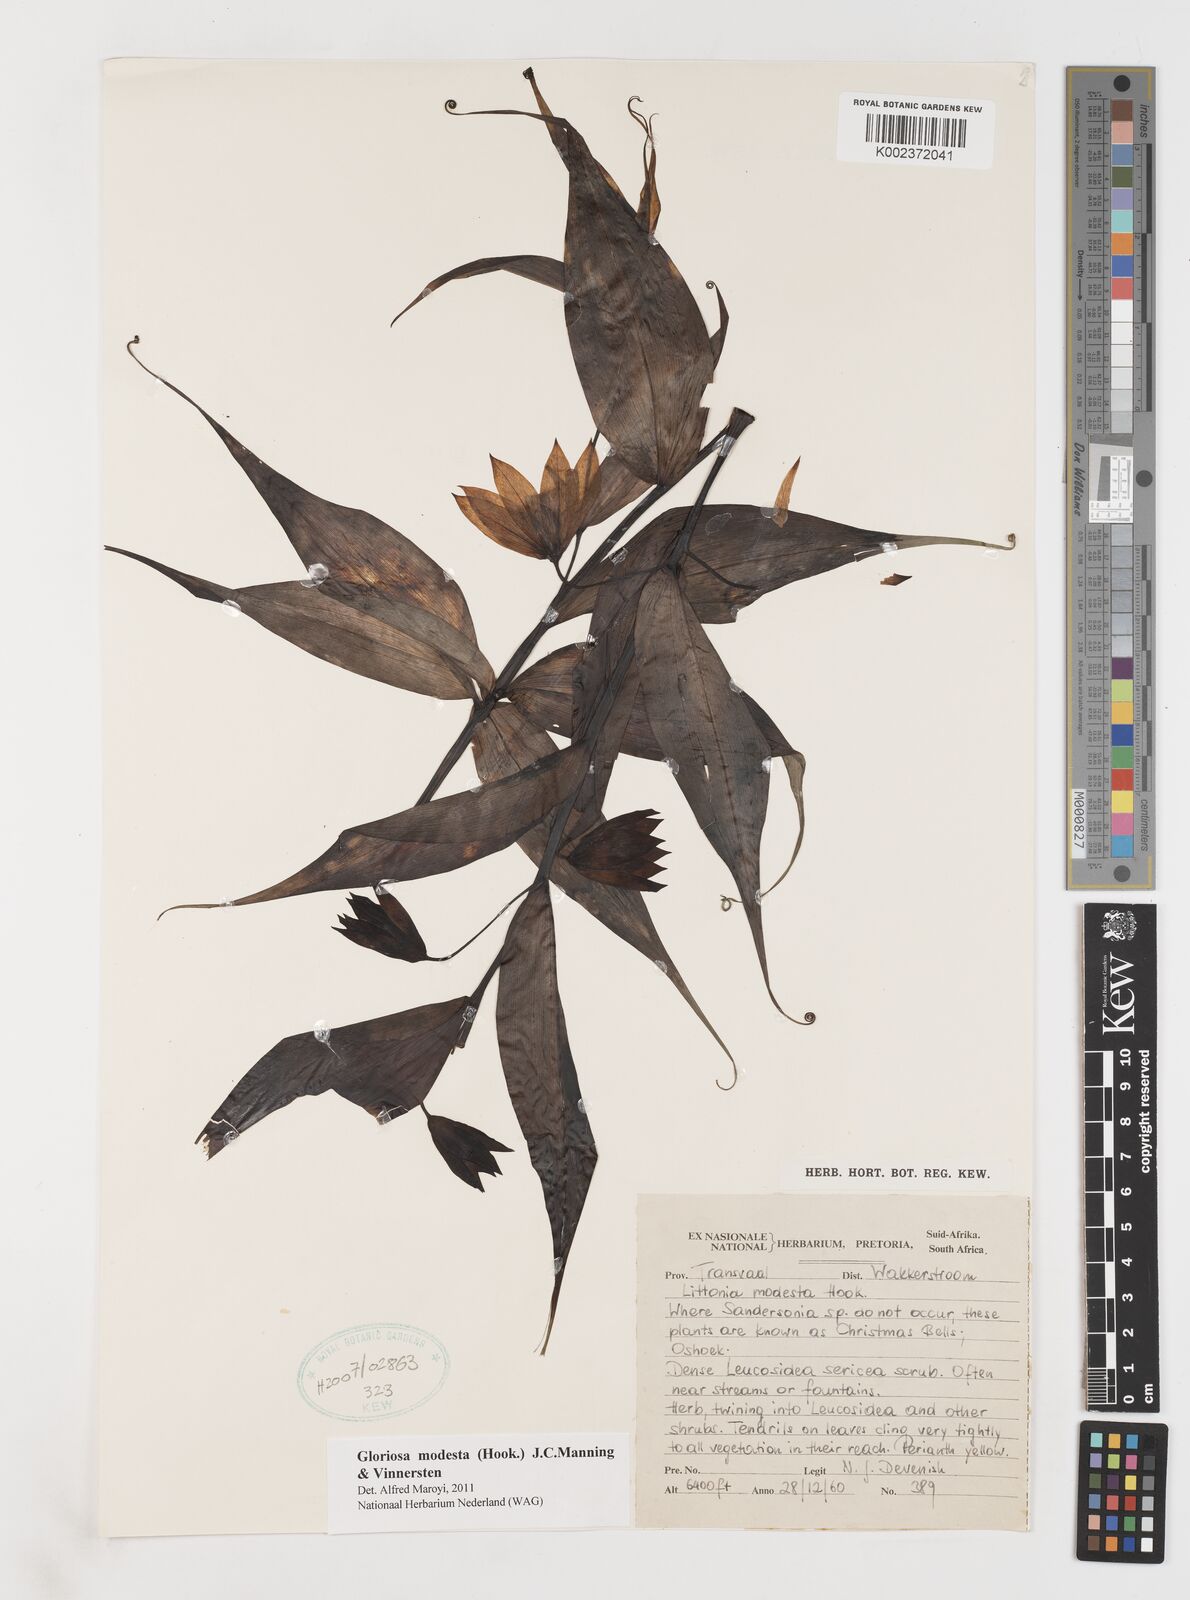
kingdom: Plantae
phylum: Tracheophyta
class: Liliopsida
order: Liliales
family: Colchicaceae
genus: Gloriosa
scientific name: Gloriosa modesta
